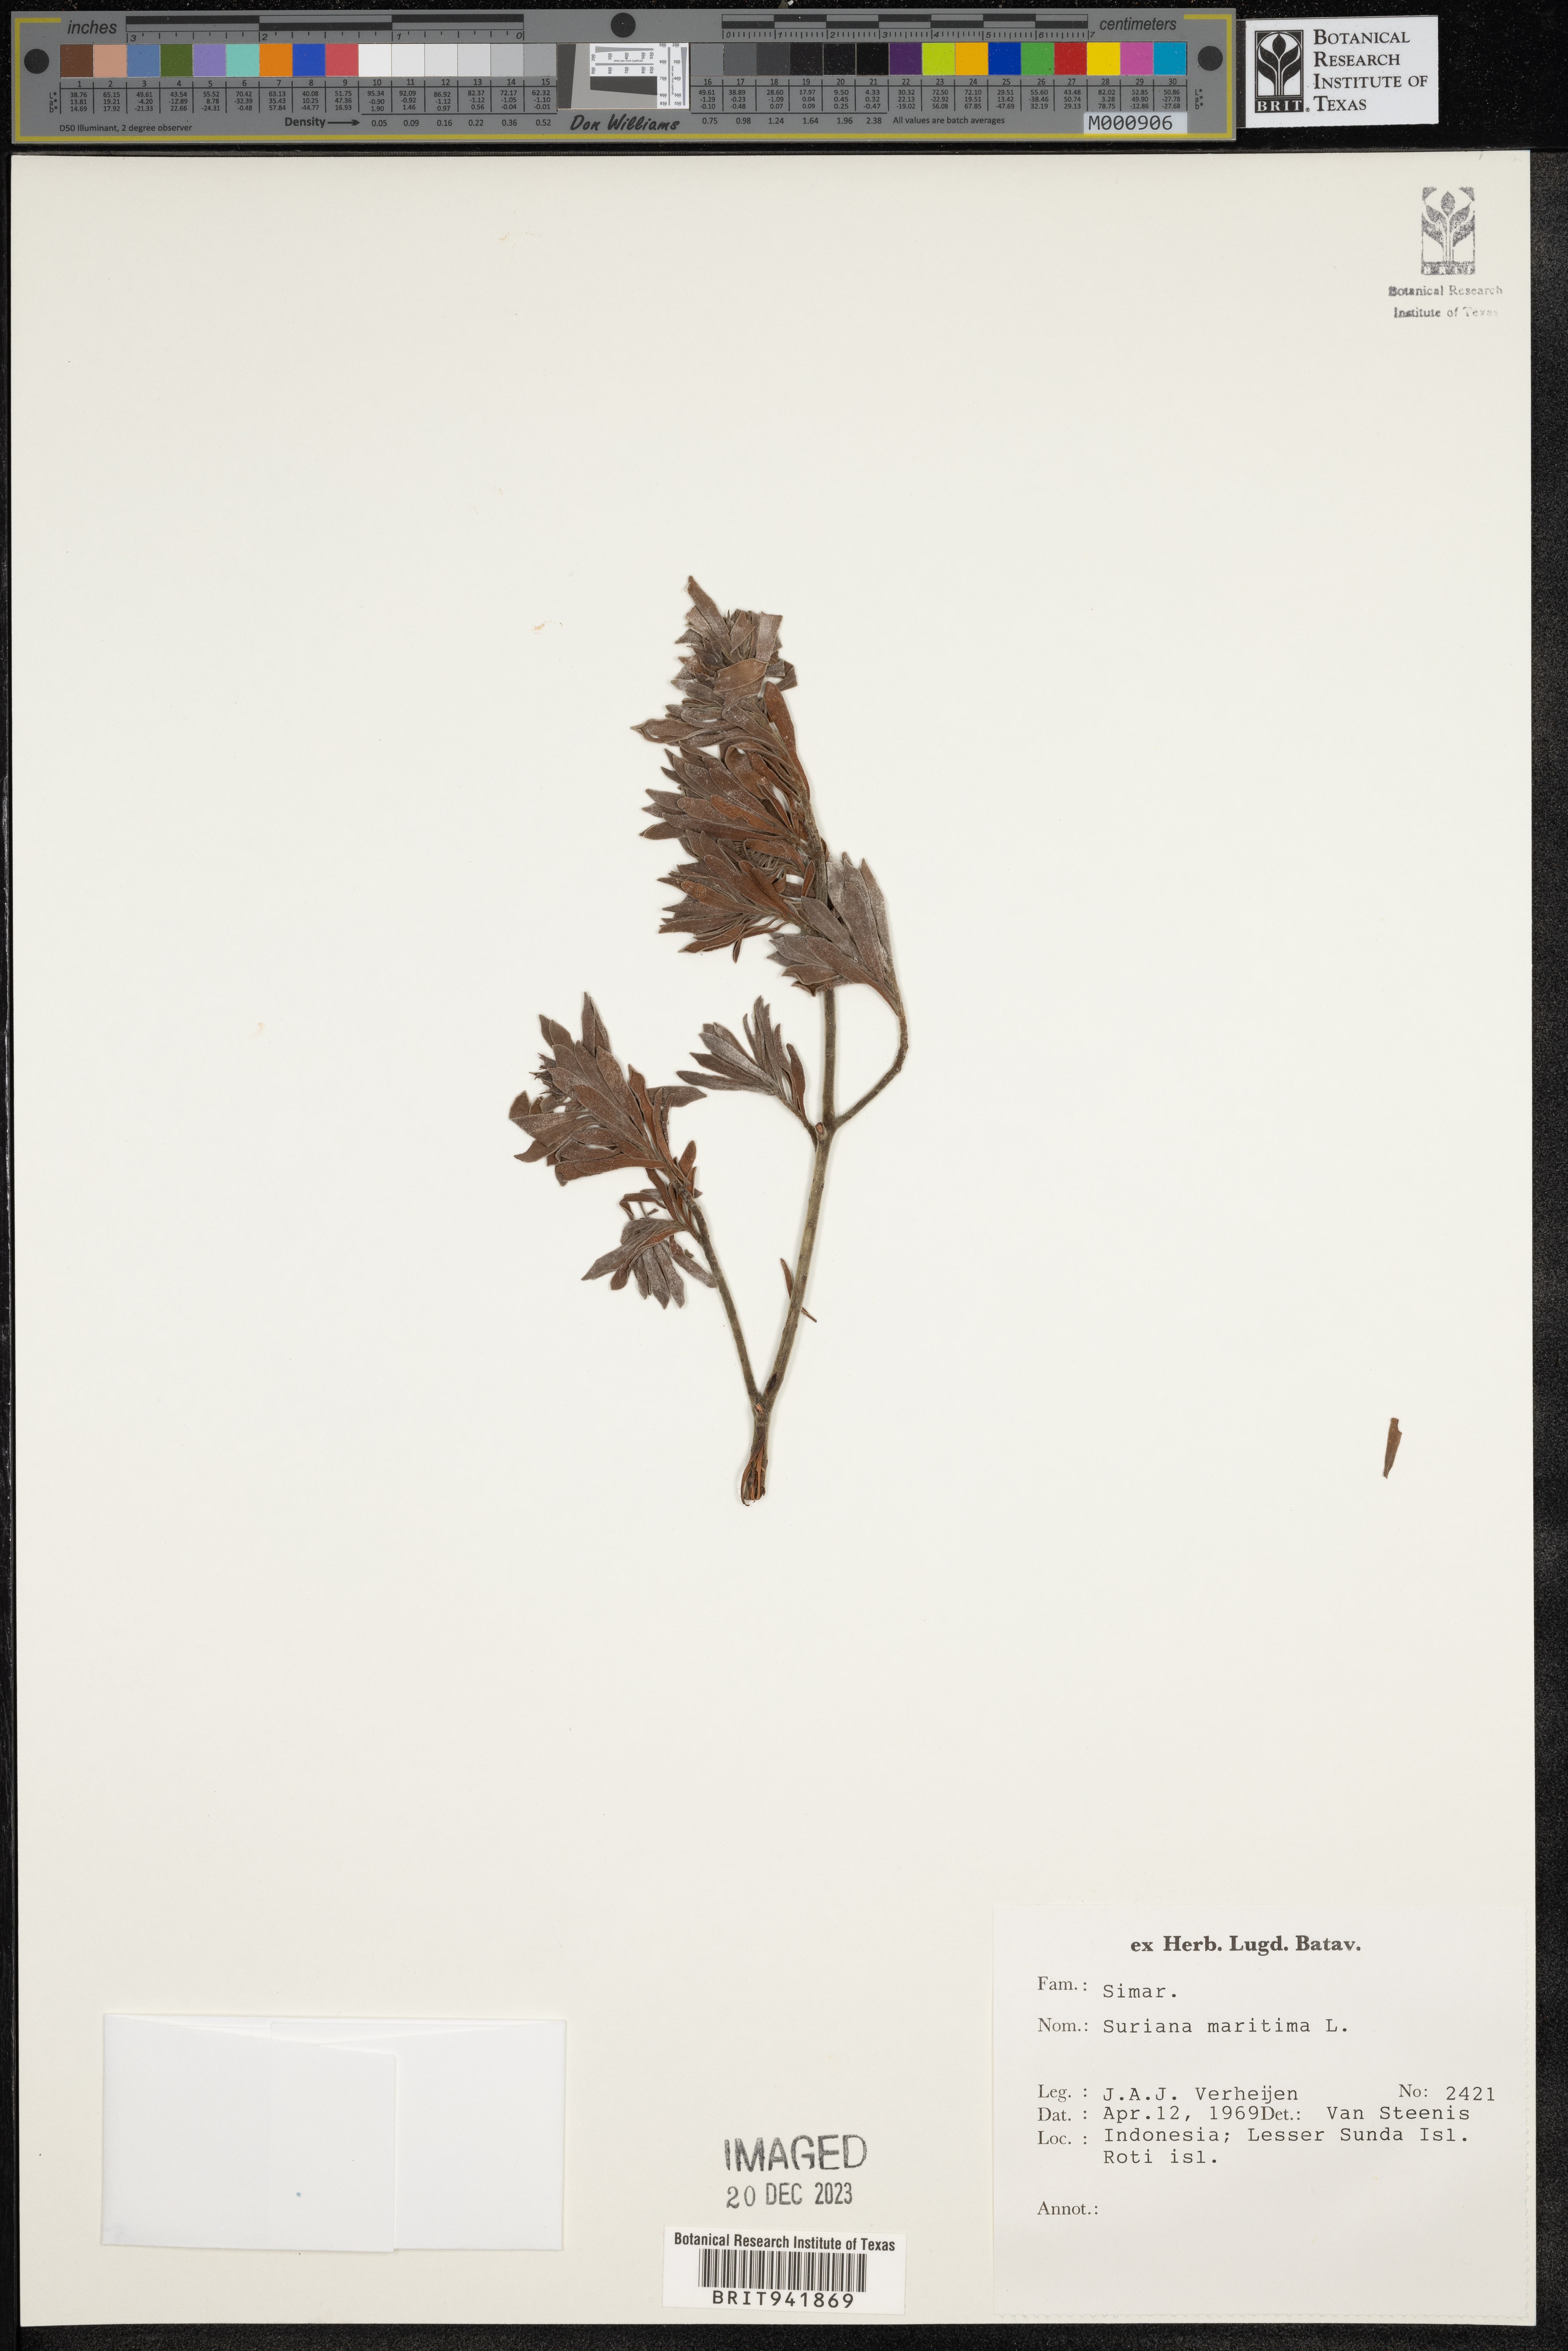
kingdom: Plantae
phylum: Tracheophyta
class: Magnoliopsida
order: Fabales
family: Surianaceae
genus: Suriana
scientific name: Suriana
